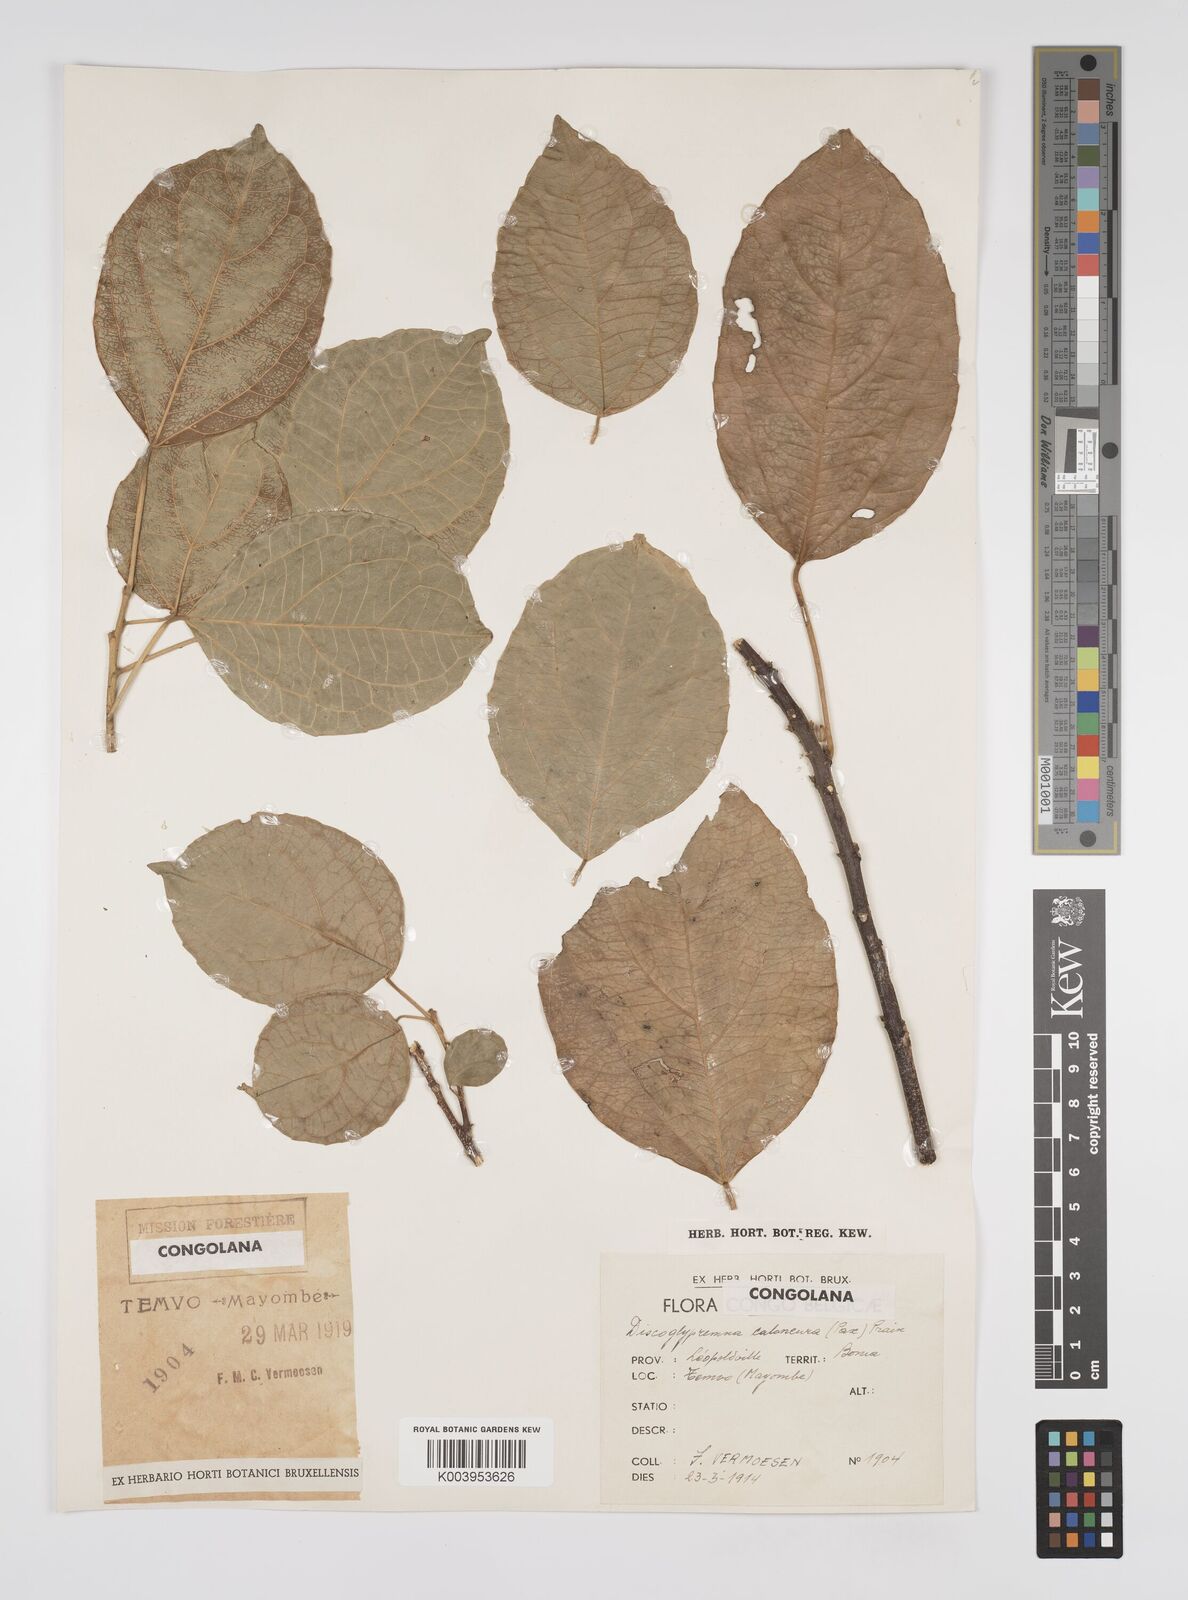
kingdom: Plantae
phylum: Tracheophyta
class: Magnoliopsida
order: Malpighiales
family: Euphorbiaceae
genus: Discoglypremna
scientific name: Discoglypremna caloneura
